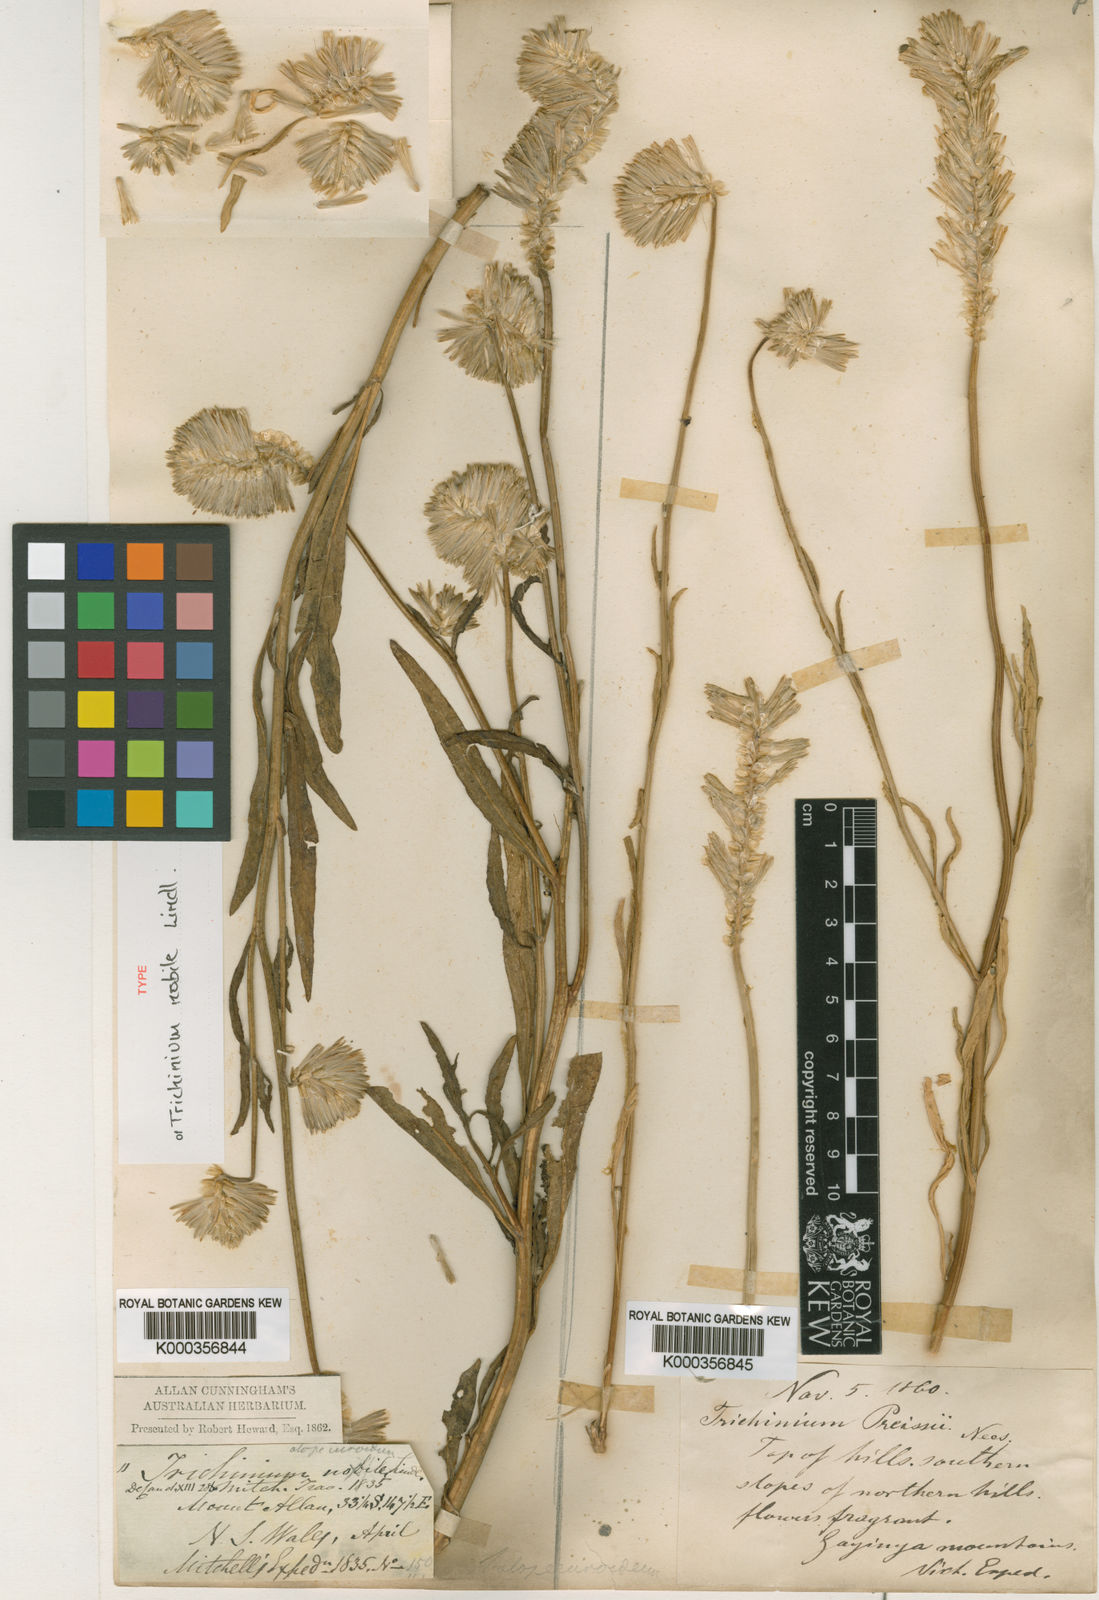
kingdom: Plantae
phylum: Tracheophyta
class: Magnoliopsida
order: Caryophyllales
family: Amaranthaceae
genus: Ptilotus
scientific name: Ptilotus nobilis
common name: Regal-foxtail
